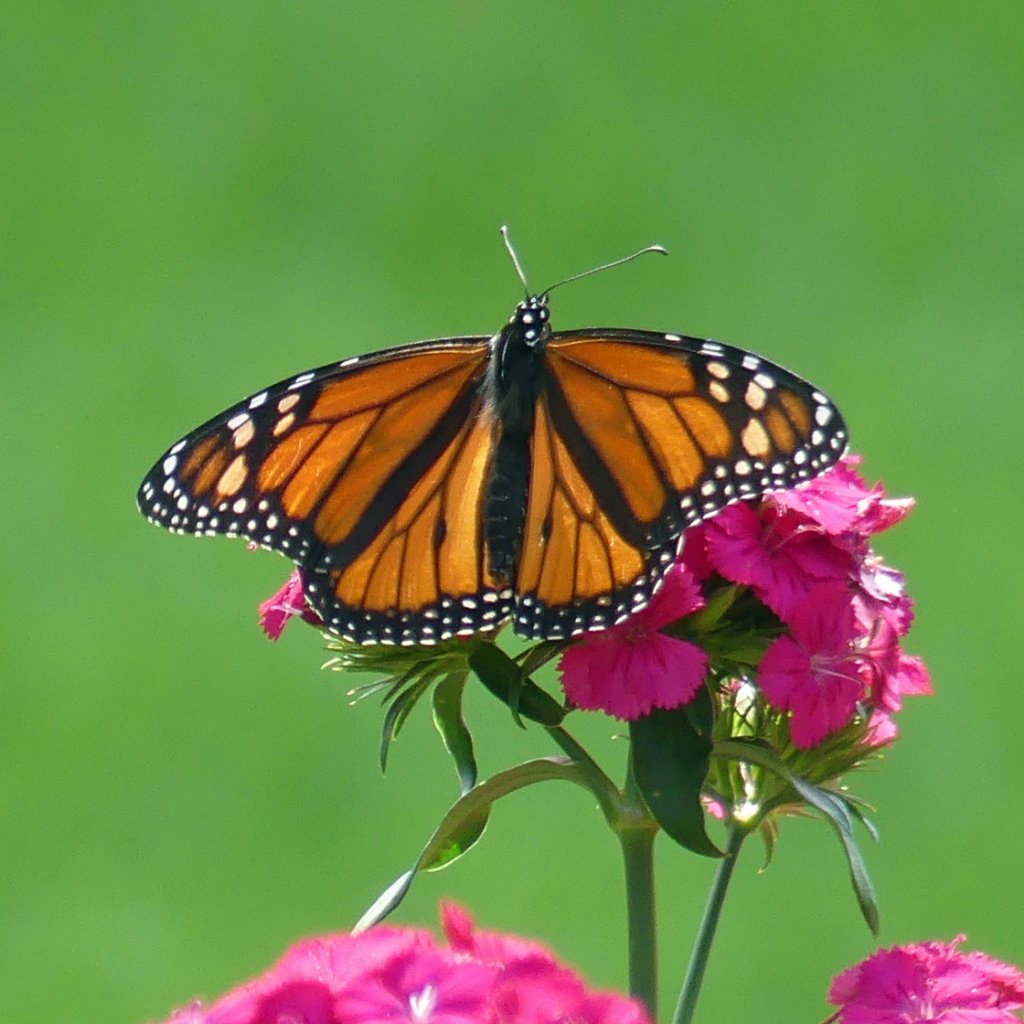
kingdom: Animalia
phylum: Arthropoda
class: Insecta
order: Lepidoptera
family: Nymphalidae
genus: Danaus
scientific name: Danaus plexippus
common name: Monarch
